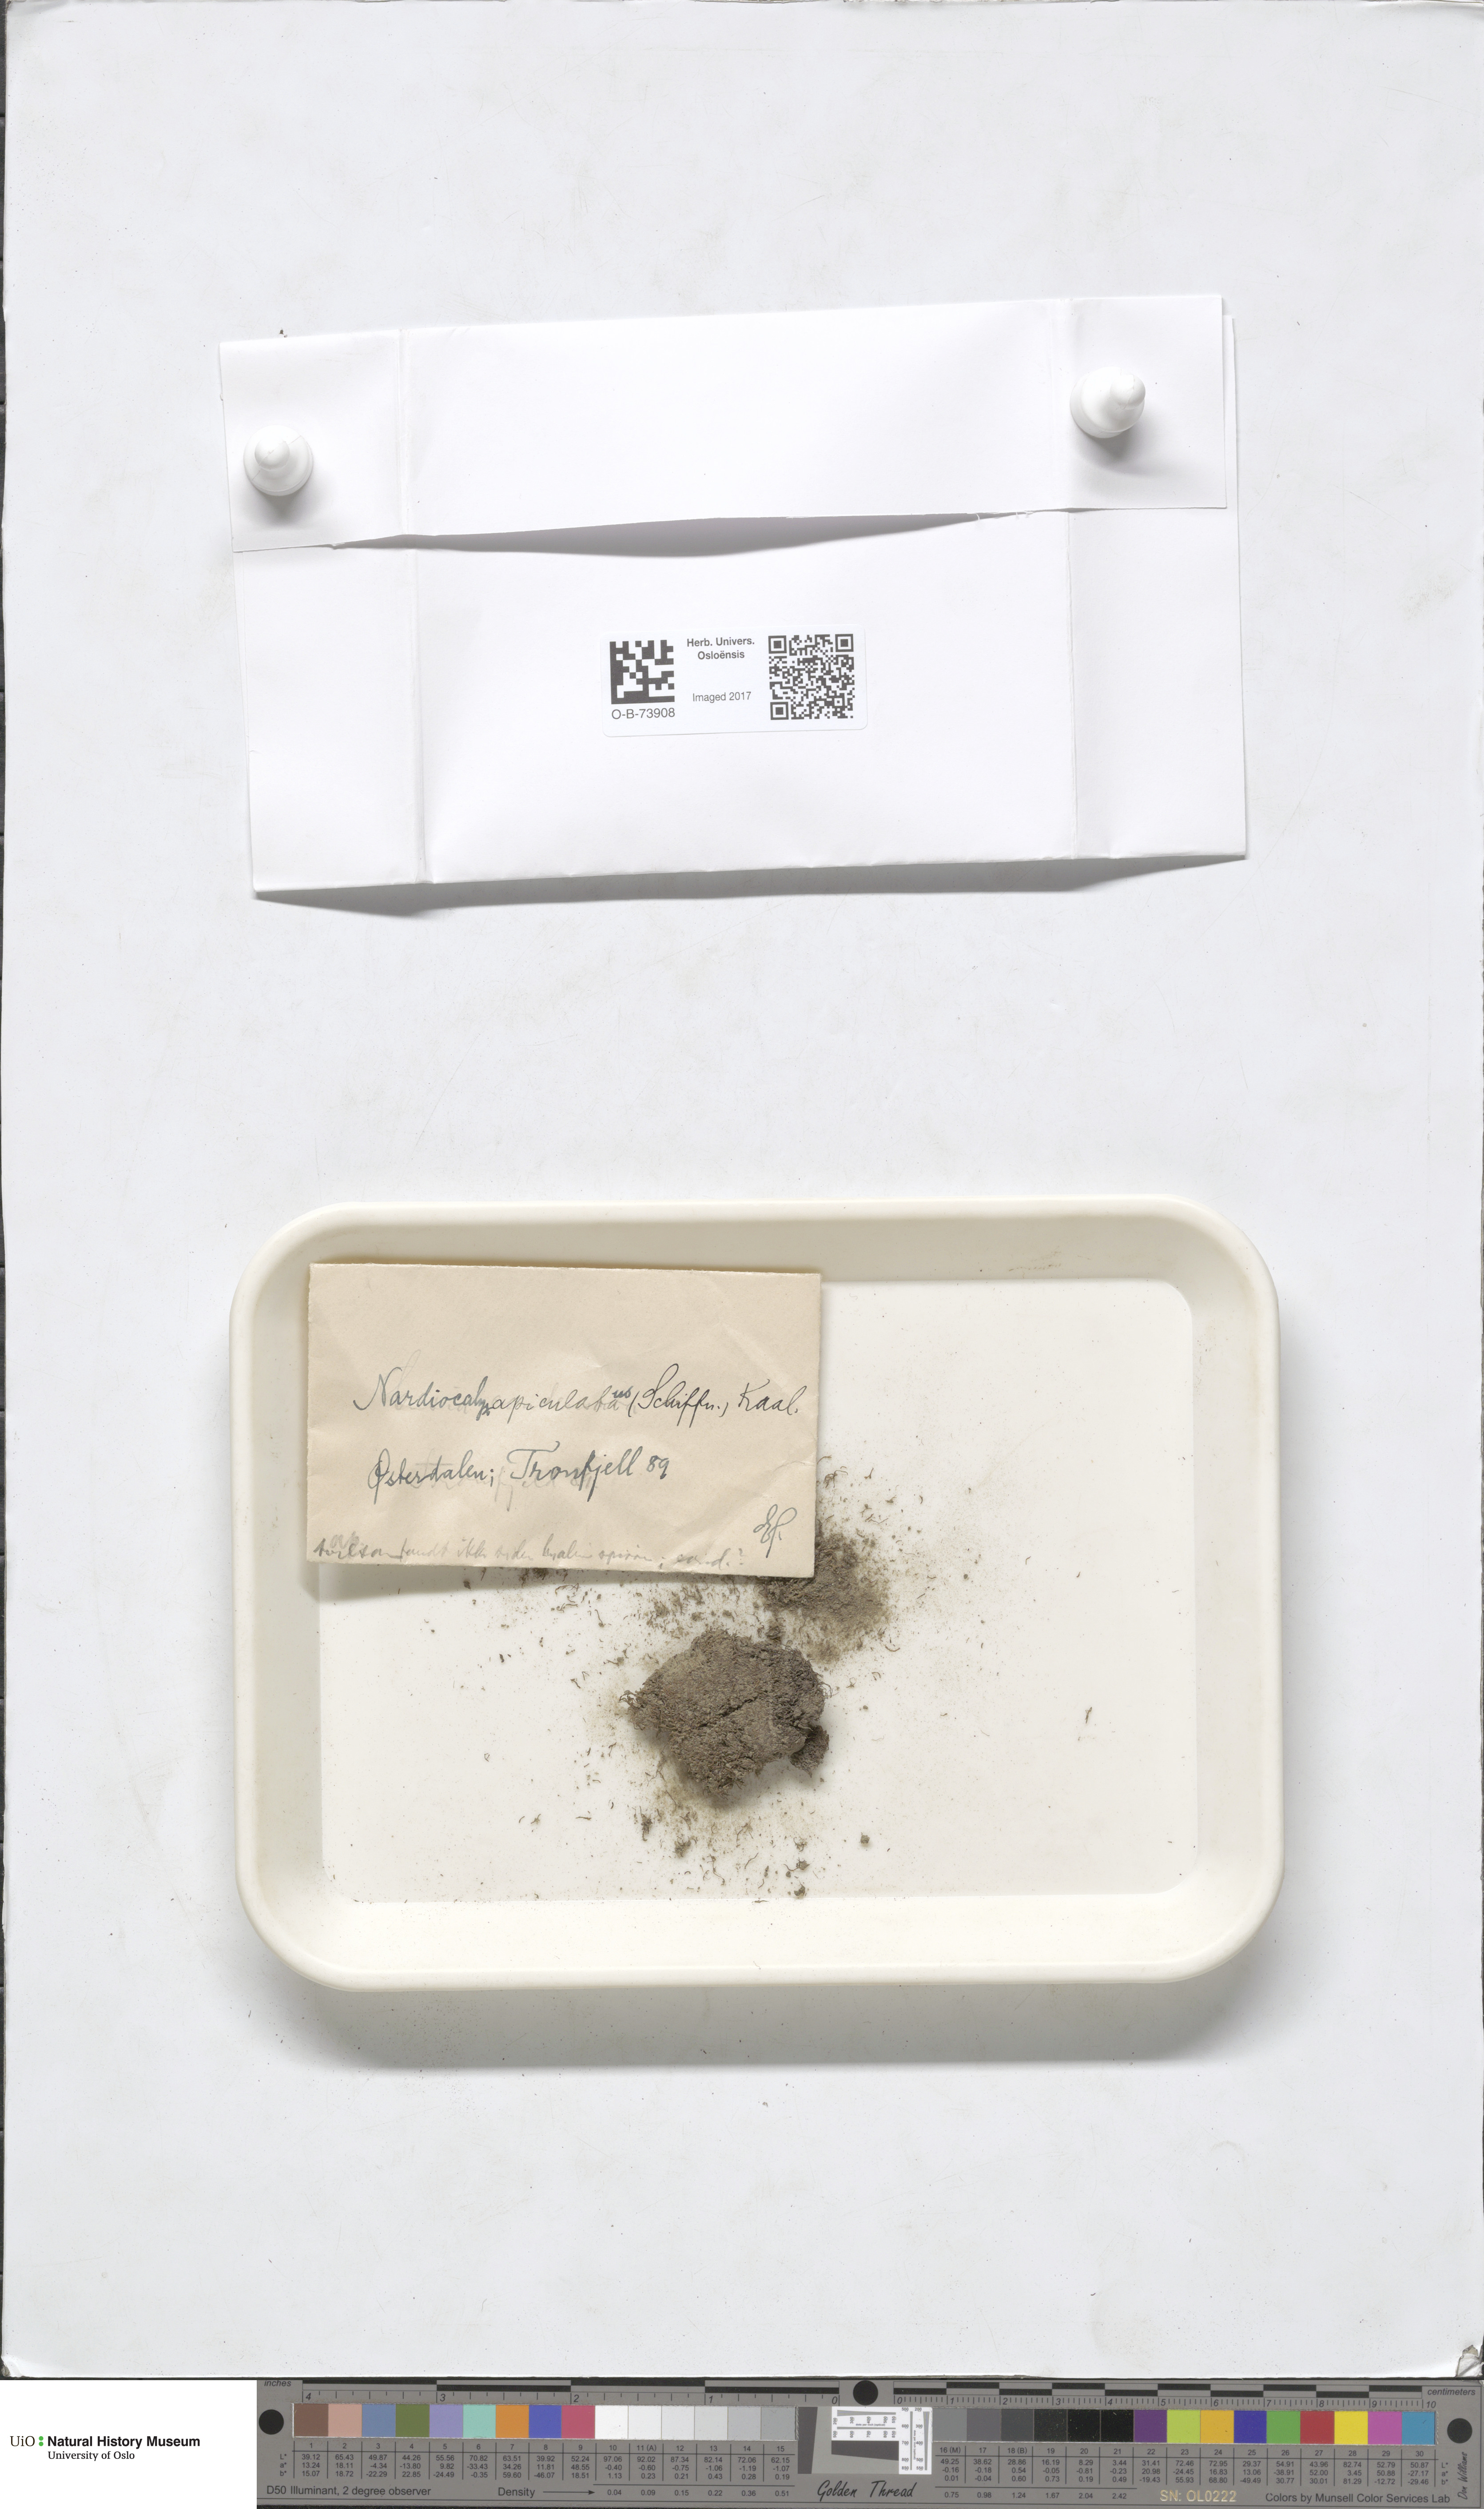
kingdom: Plantae
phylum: Marchantiophyta
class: Jungermanniopsida
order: Jungermanniales
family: Gymnomitriaceae
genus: Marsupella
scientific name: Marsupella apiculata
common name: Pointed frostwort
